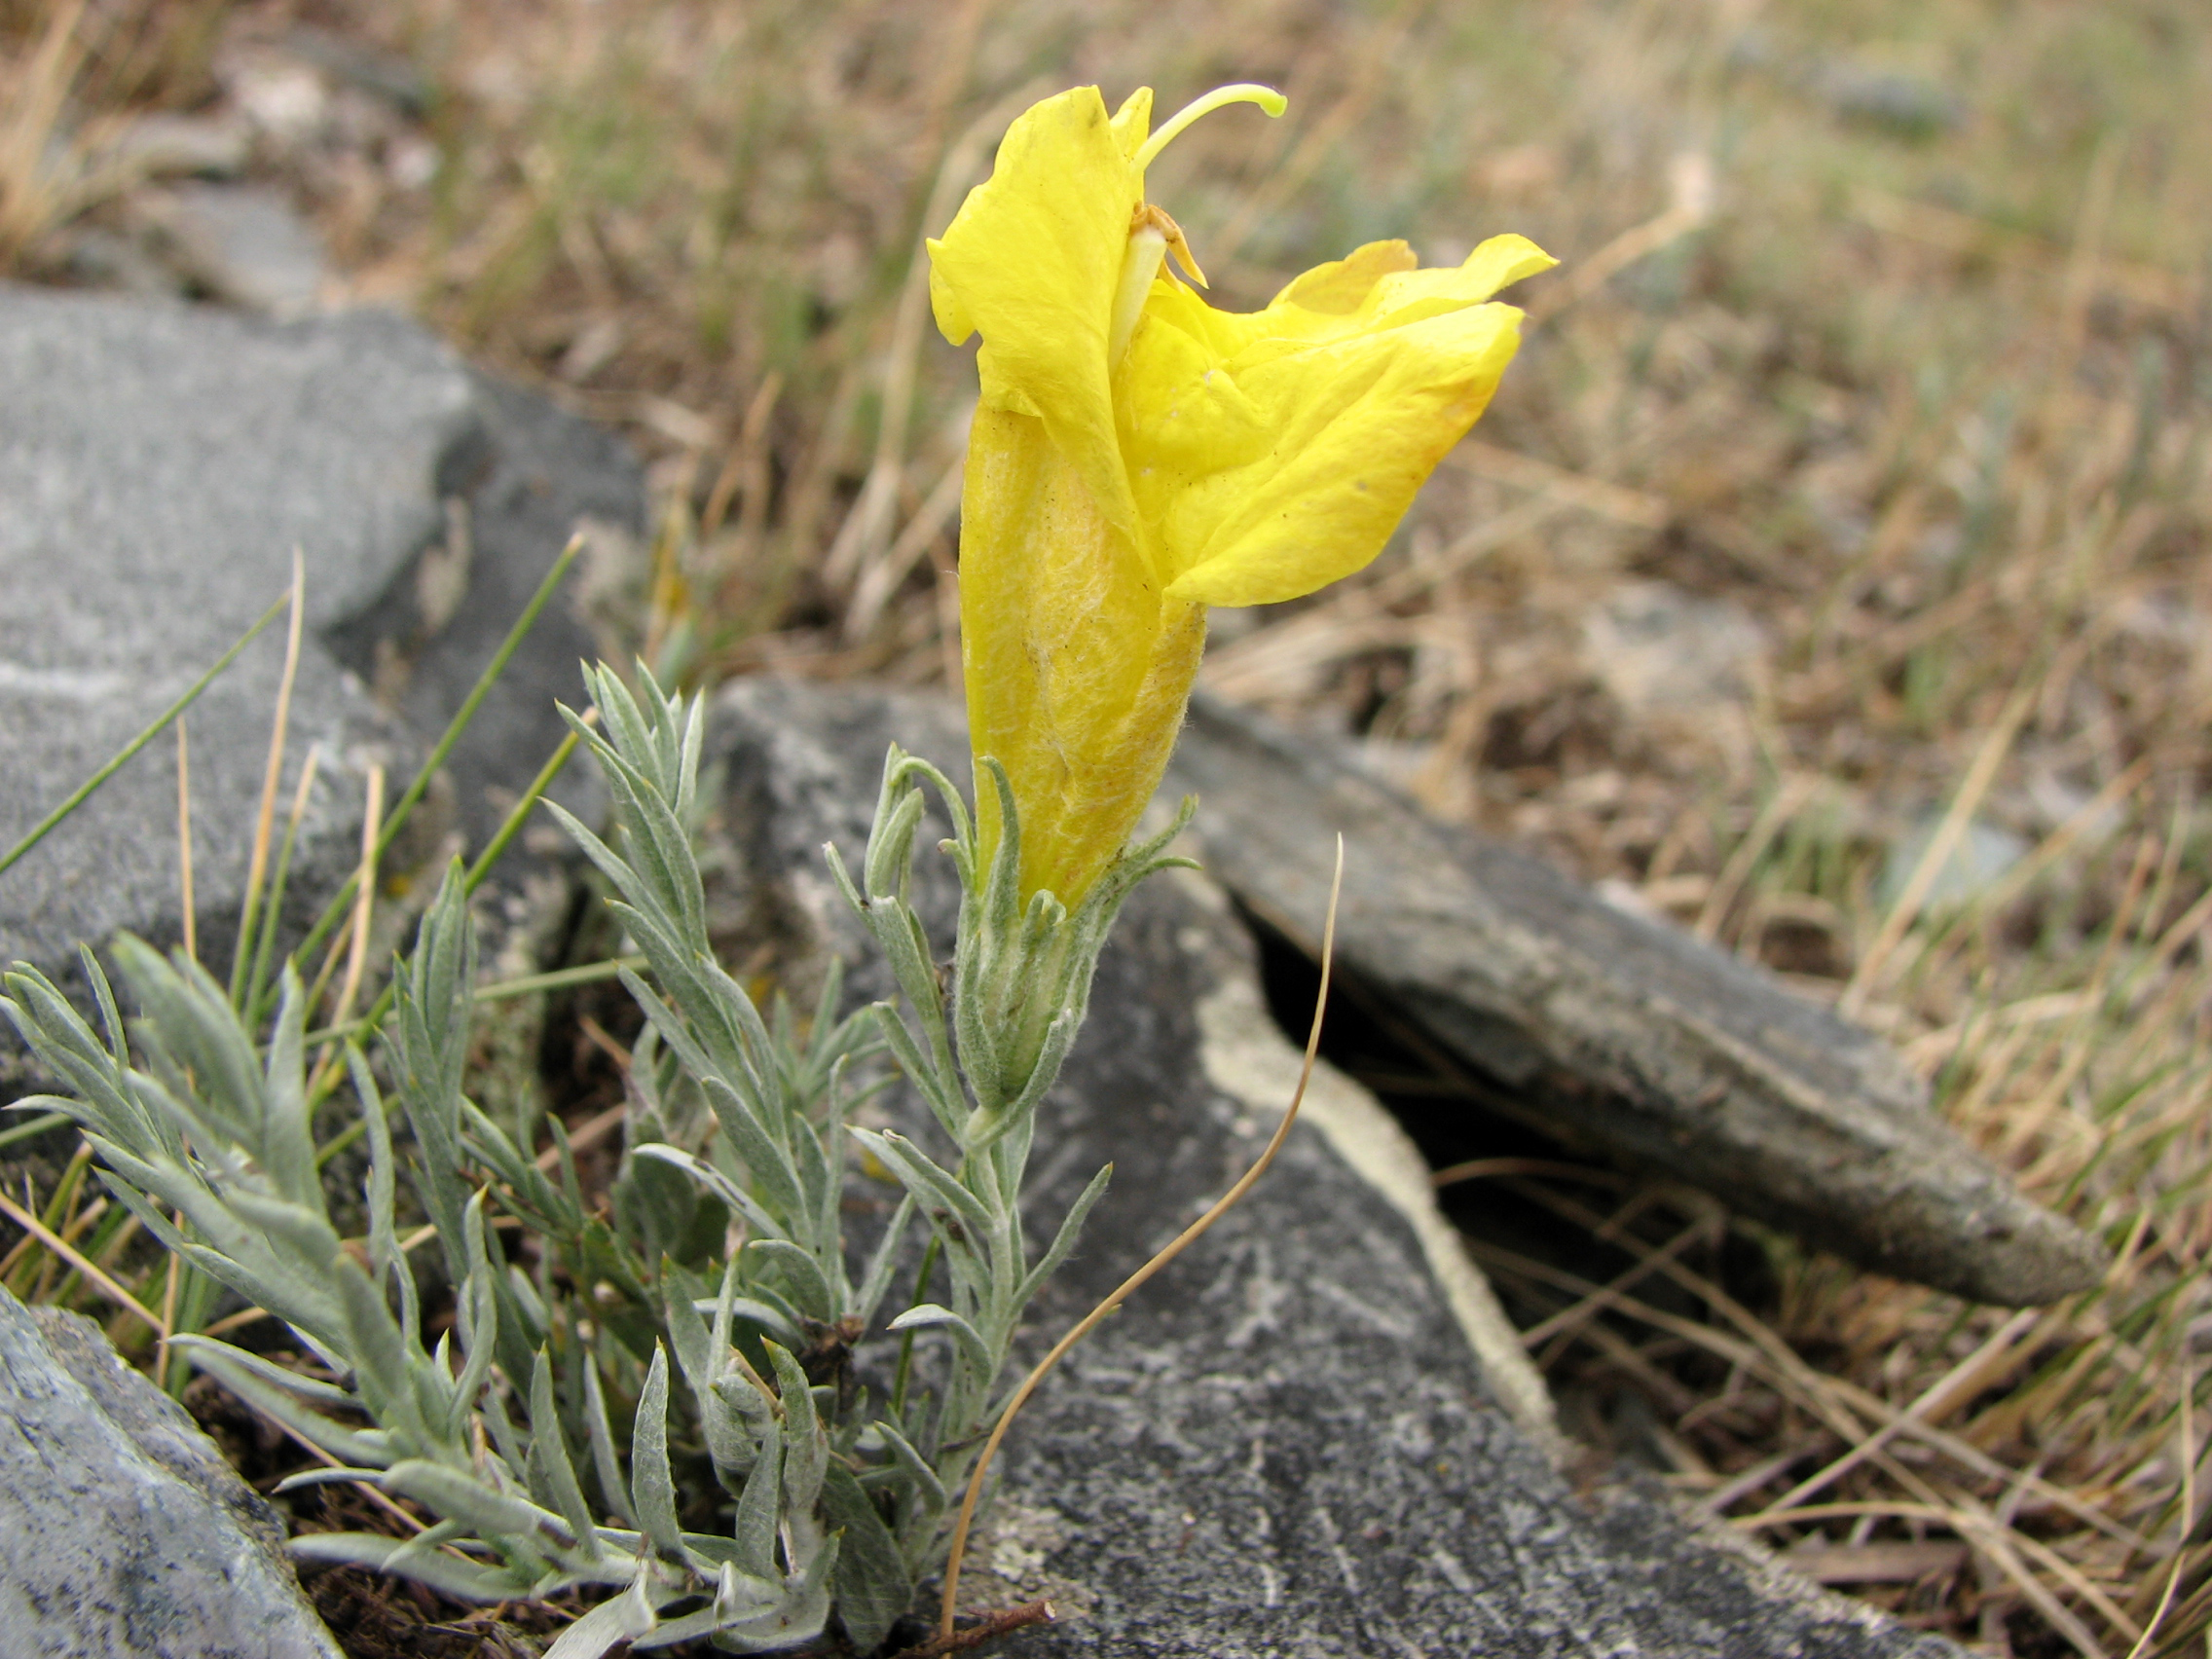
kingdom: Plantae
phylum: Tracheophyta
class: Magnoliopsida
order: Lamiales
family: Orobanchaceae
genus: Cymbaria
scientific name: Cymbaria daurica
